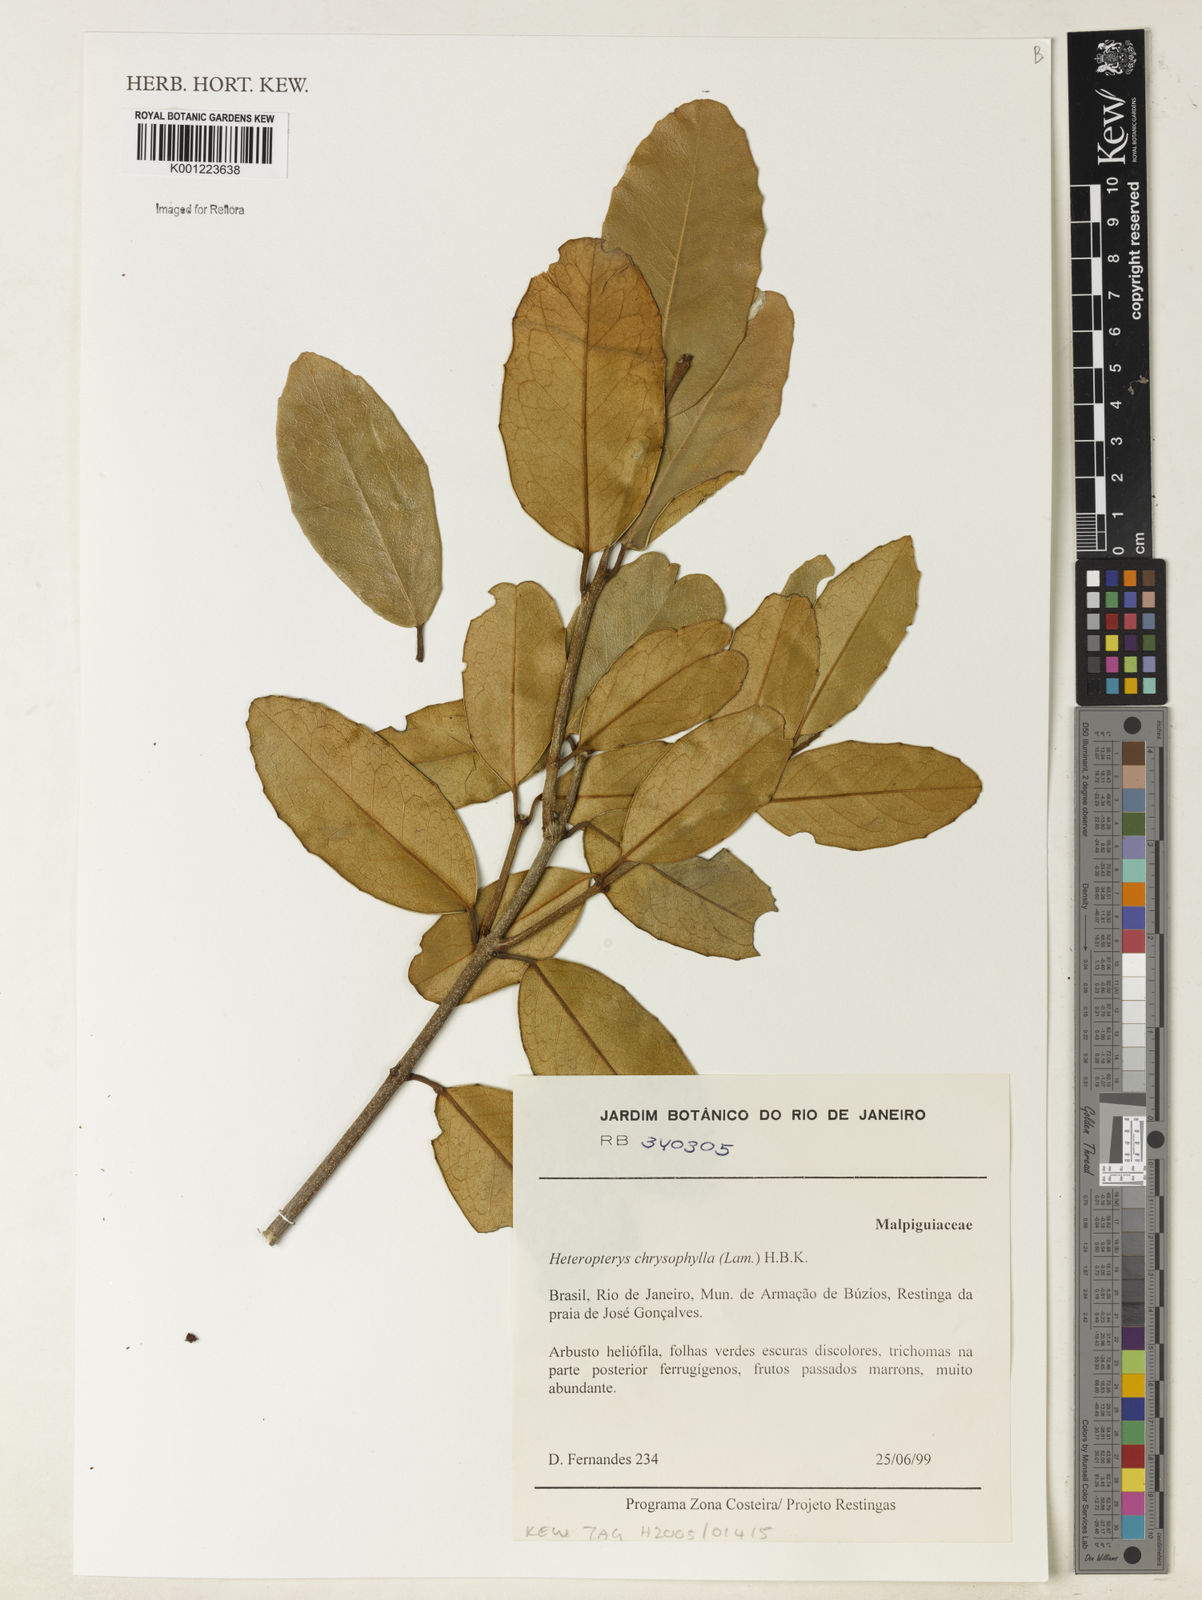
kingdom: Plantae
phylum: Tracheophyta
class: Magnoliopsida
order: Malpighiales
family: Malpighiaceae
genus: Heteropterys
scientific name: Heteropterys chrysophylla
